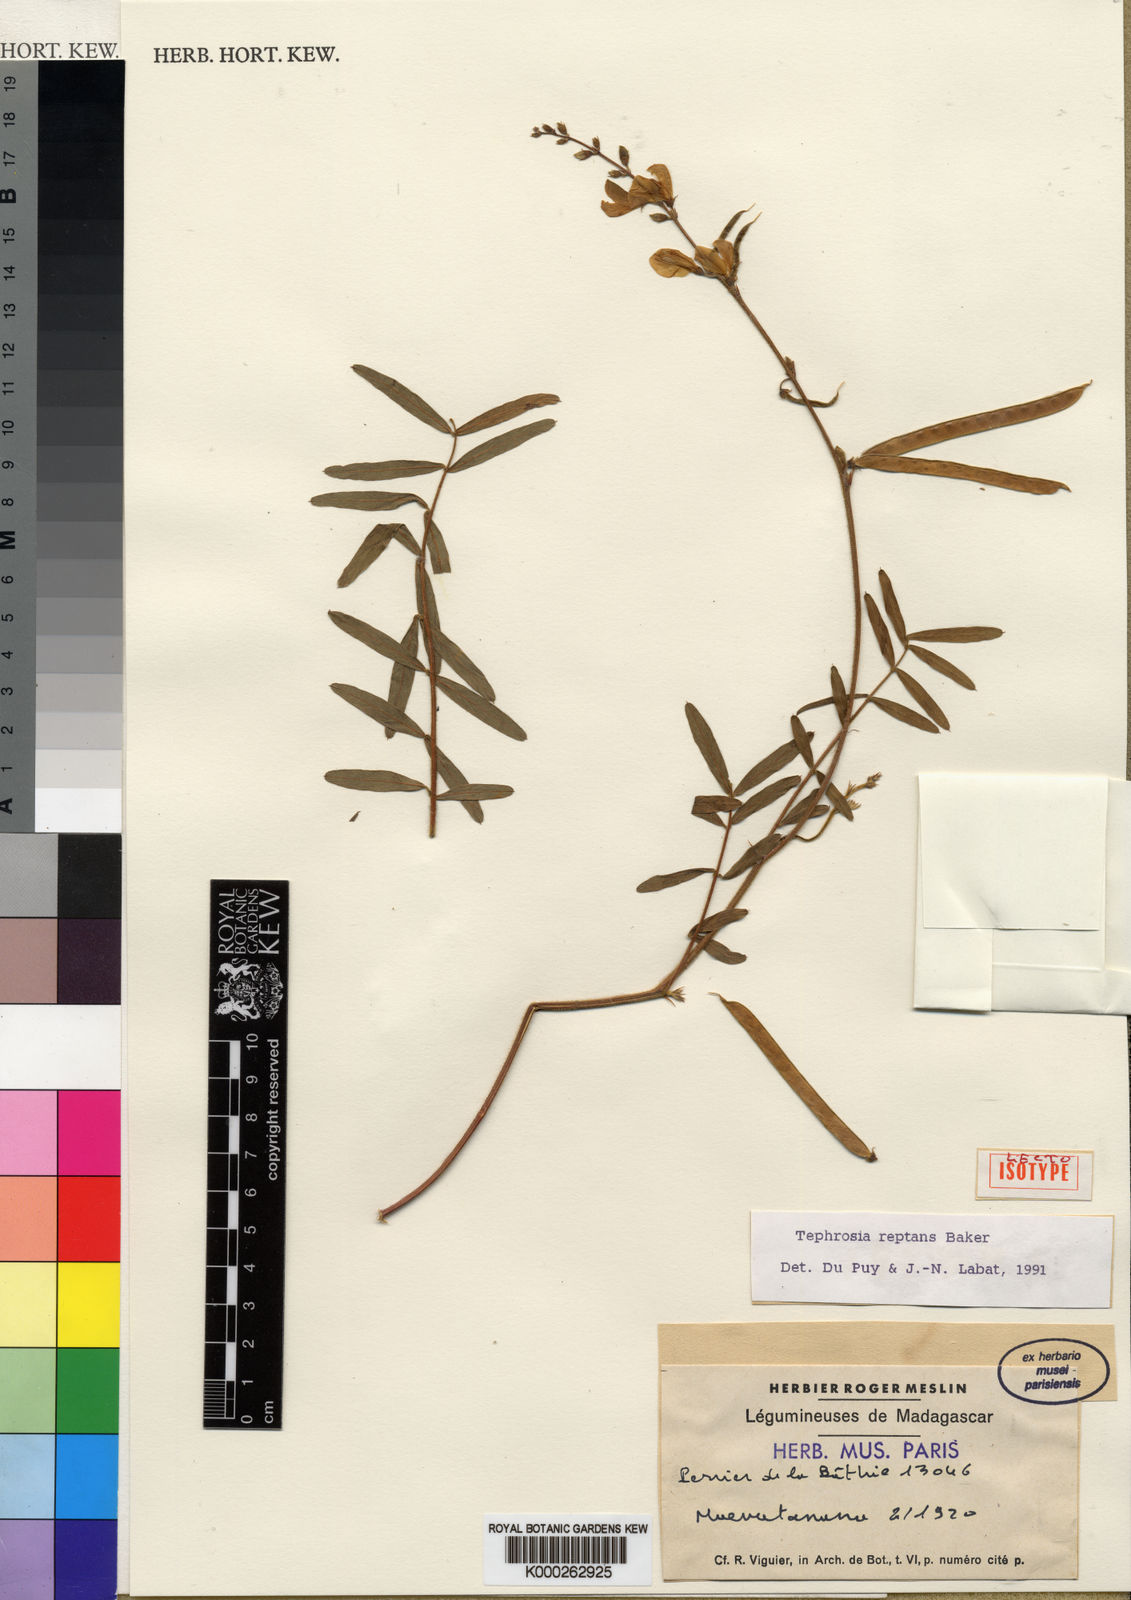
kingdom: Plantae
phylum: Tracheophyta
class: Magnoliopsida
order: Fabales
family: Fabaceae
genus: Tephrosia
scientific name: Tephrosia reptans
